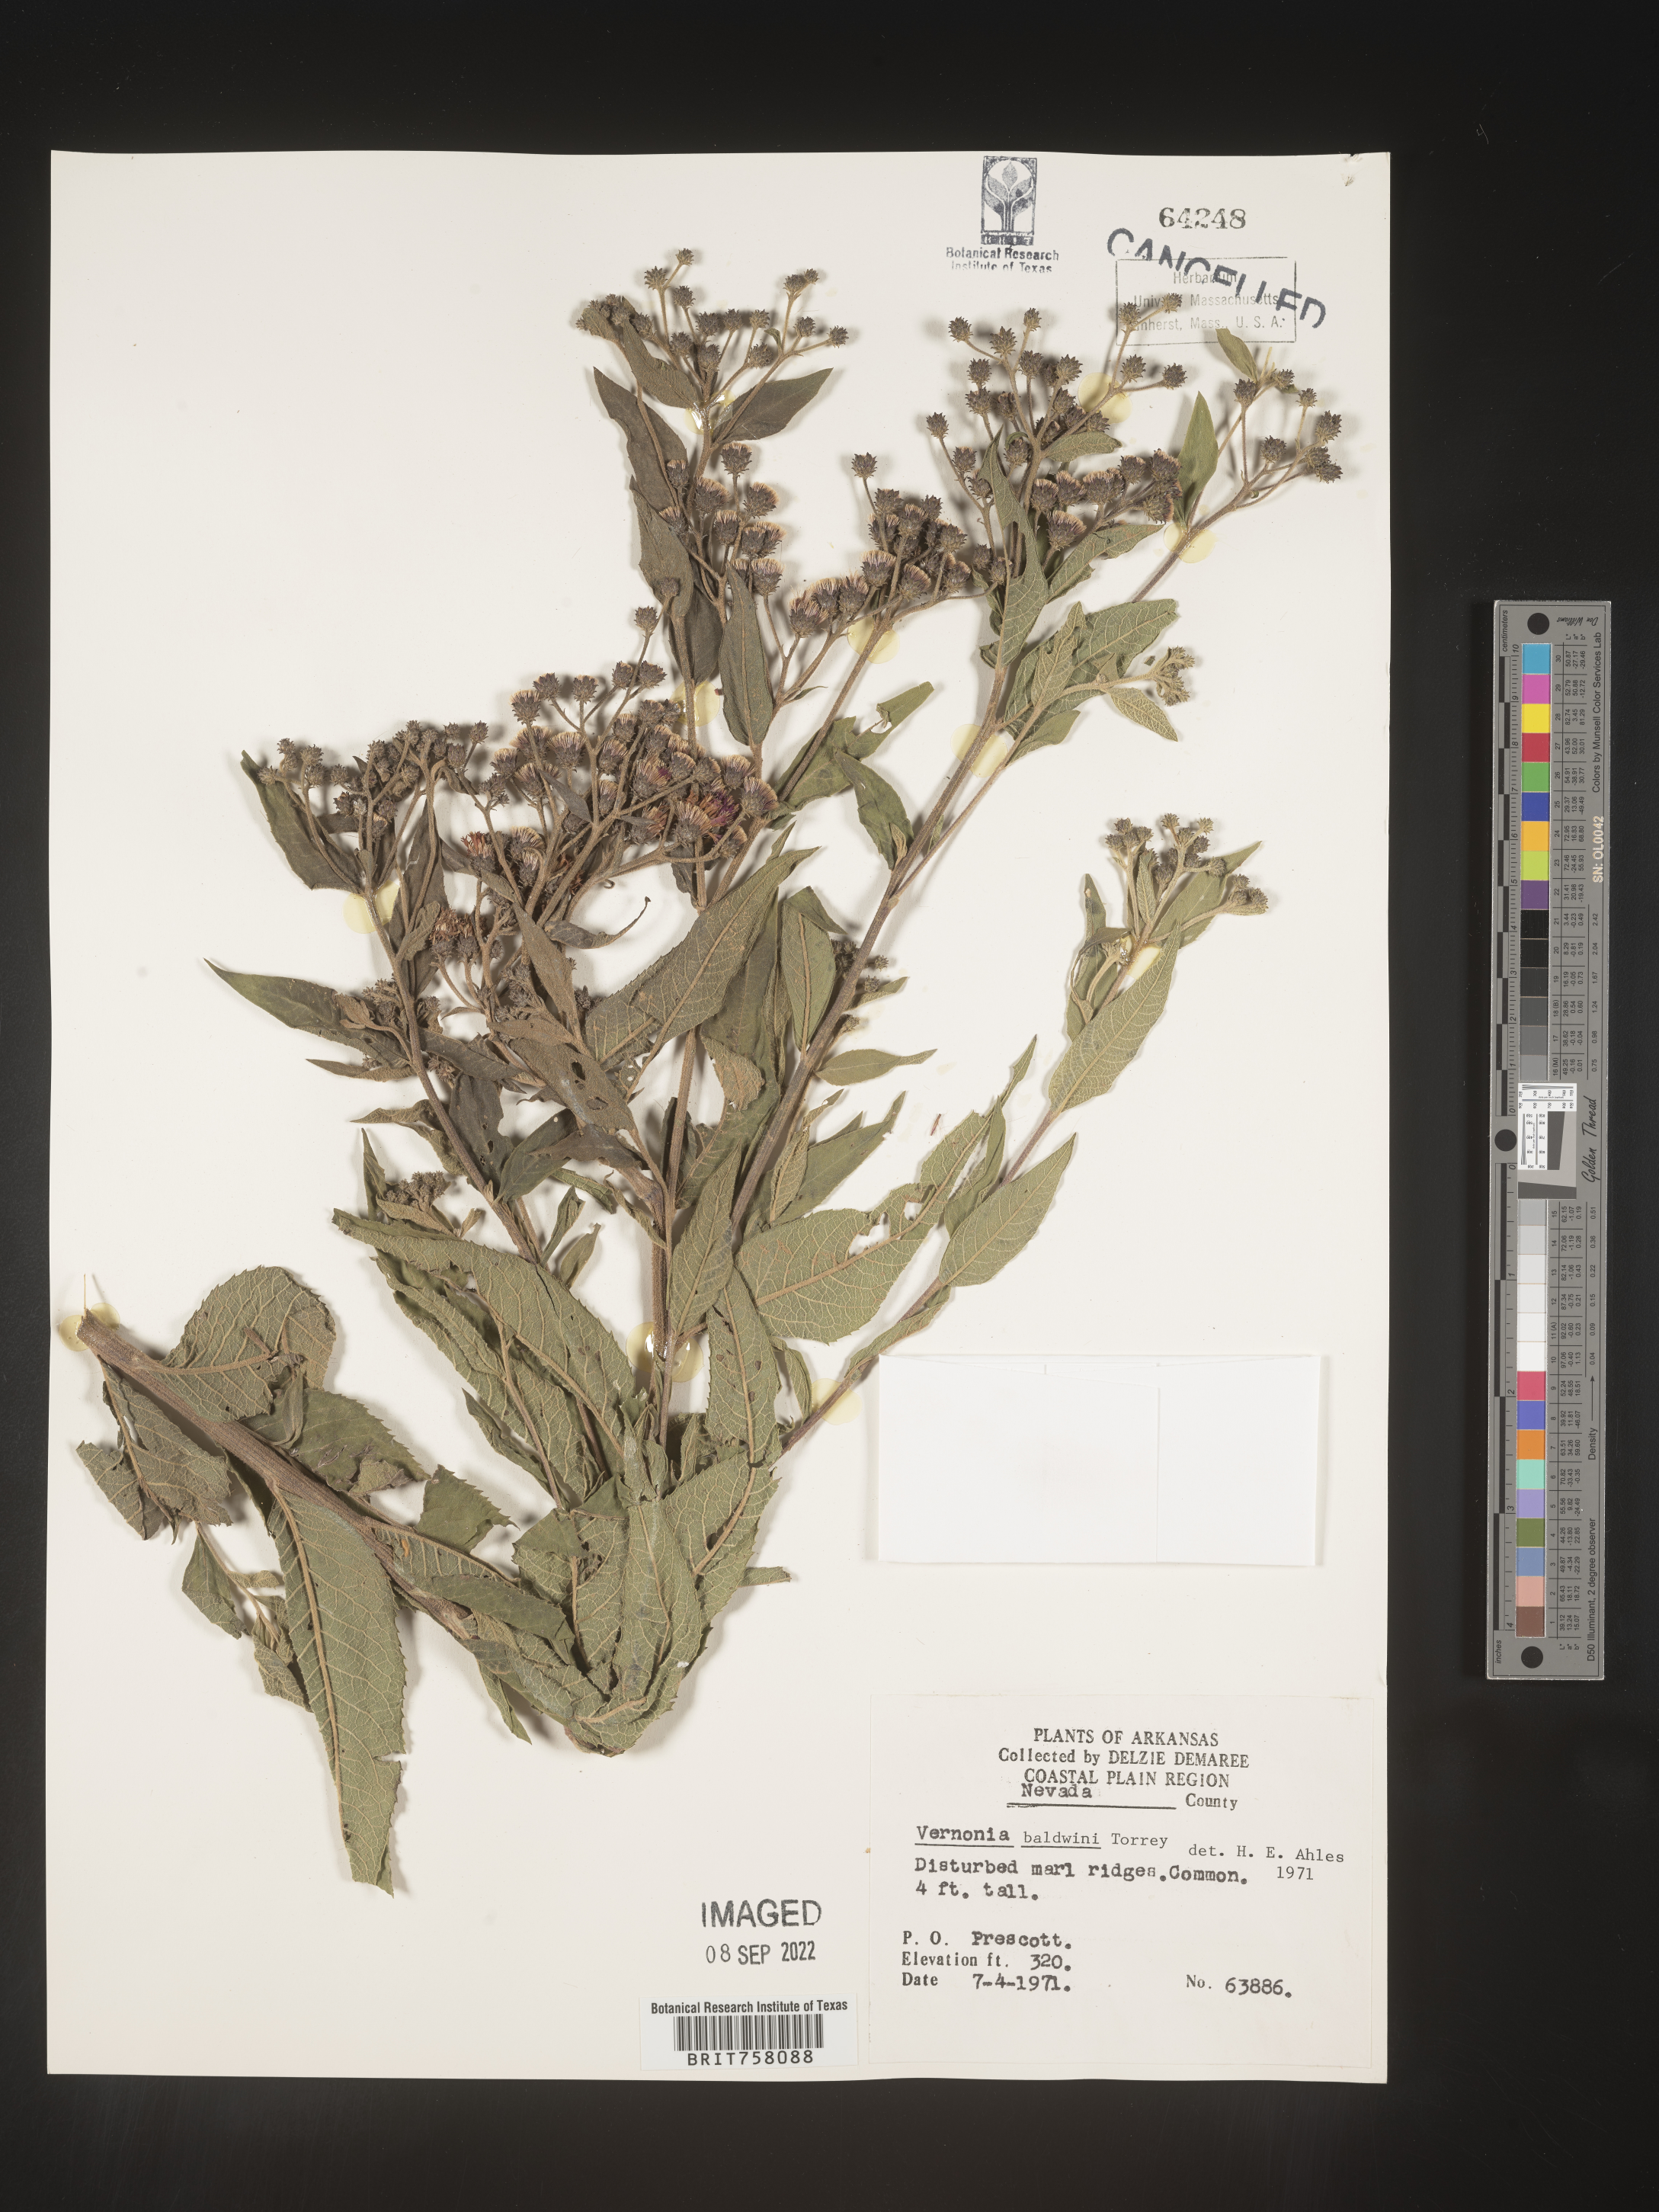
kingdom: Plantae
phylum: Tracheophyta
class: Magnoliopsida
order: Asterales
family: Asteraceae
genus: Vernonia
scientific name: Vernonia baldwinii
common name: Western ironweed
